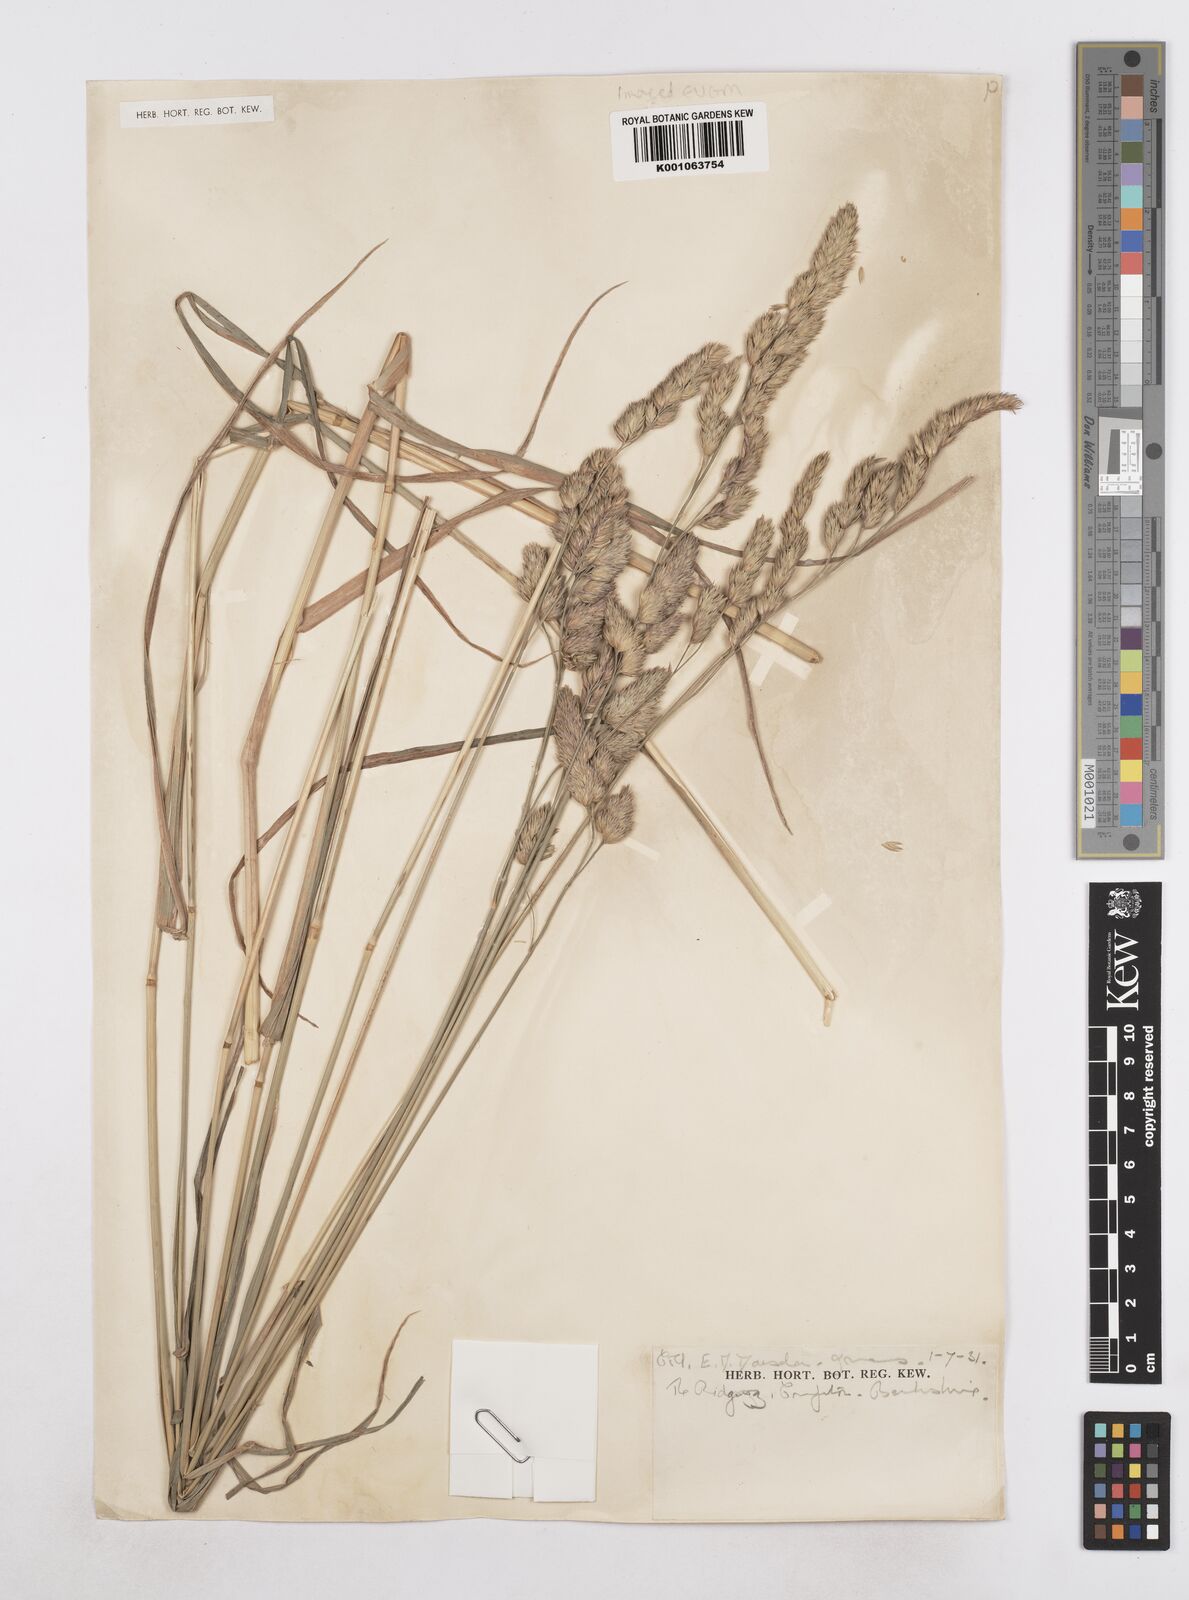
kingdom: Plantae
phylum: Tracheophyta
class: Liliopsida
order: Poales
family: Poaceae
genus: Dactylis
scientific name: Dactylis glomerata
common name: Orchardgrass
